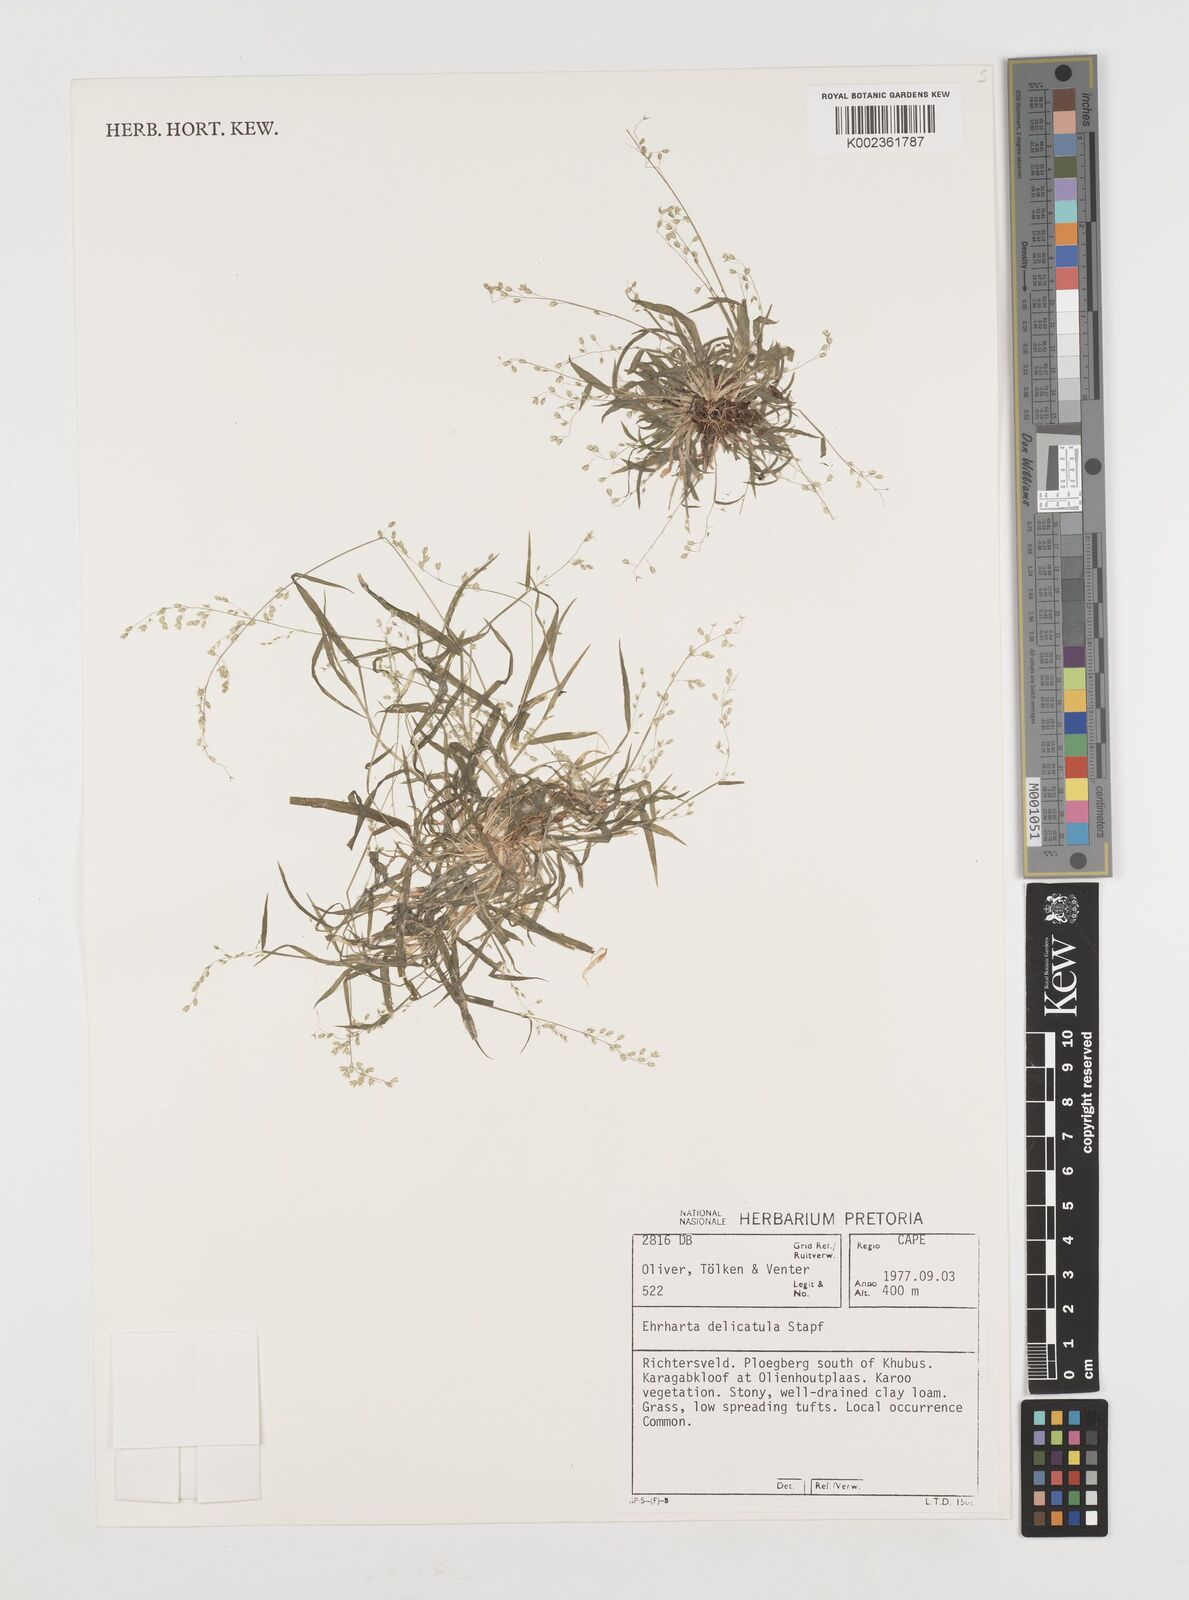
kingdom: Plantae
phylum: Tracheophyta
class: Liliopsida
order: Poales
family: Poaceae
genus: Ehrharta
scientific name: Ehrharta delicatula
